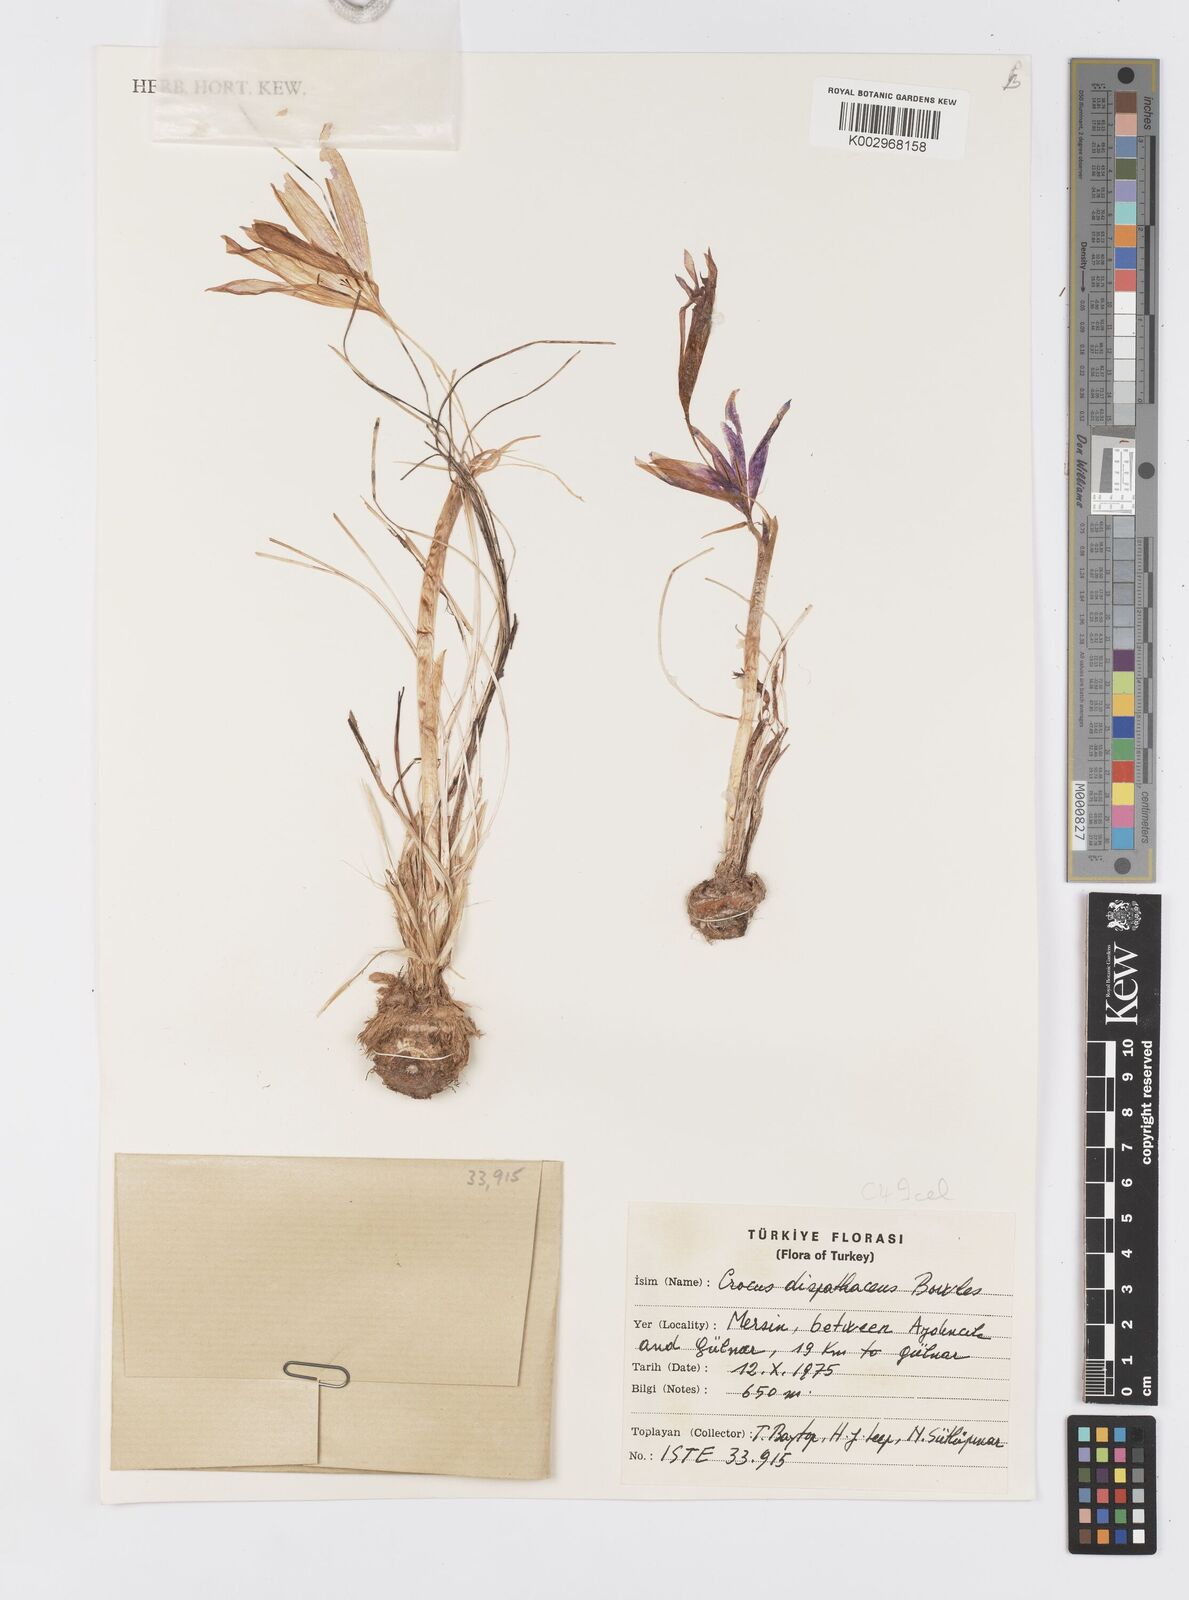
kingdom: Plantae
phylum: Tracheophyta
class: Liliopsida
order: Asparagales
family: Iridaceae
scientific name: Iridaceae
